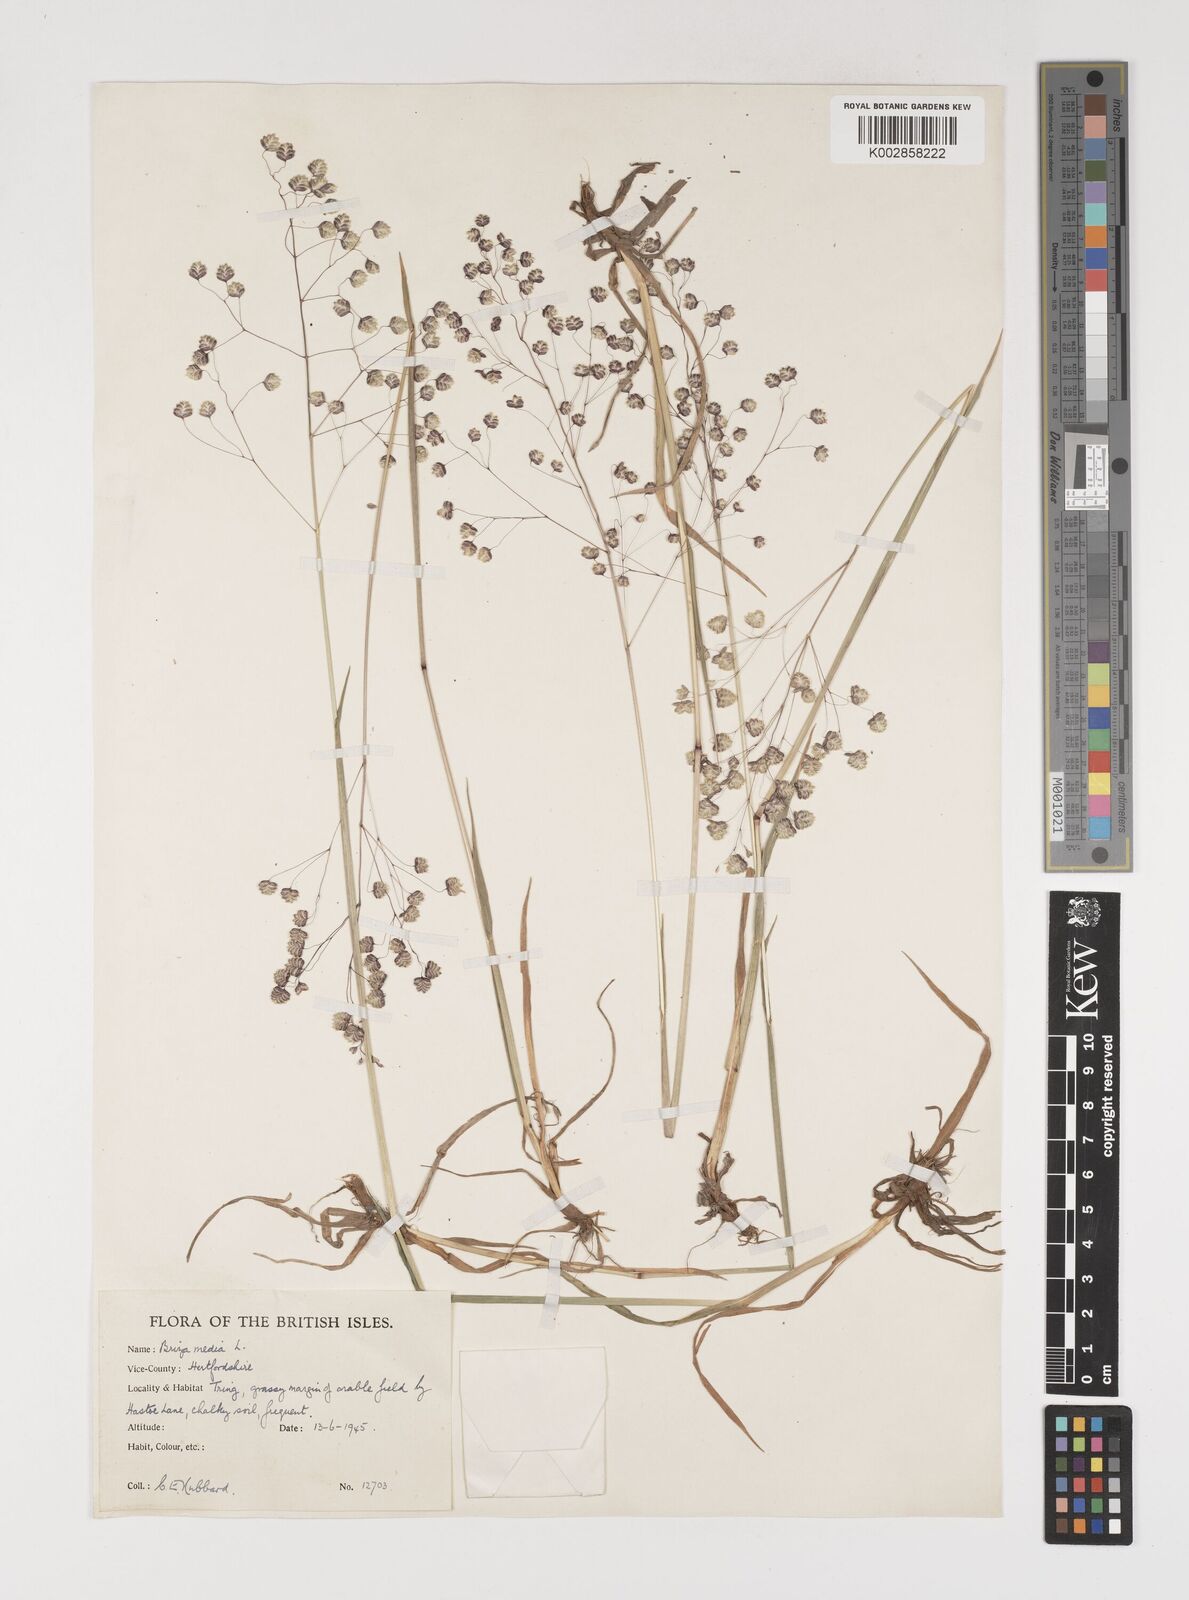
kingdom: Plantae
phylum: Tracheophyta
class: Liliopsida
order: Poales
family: Poaceae
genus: Briza
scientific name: Briza media
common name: Quaking grass
